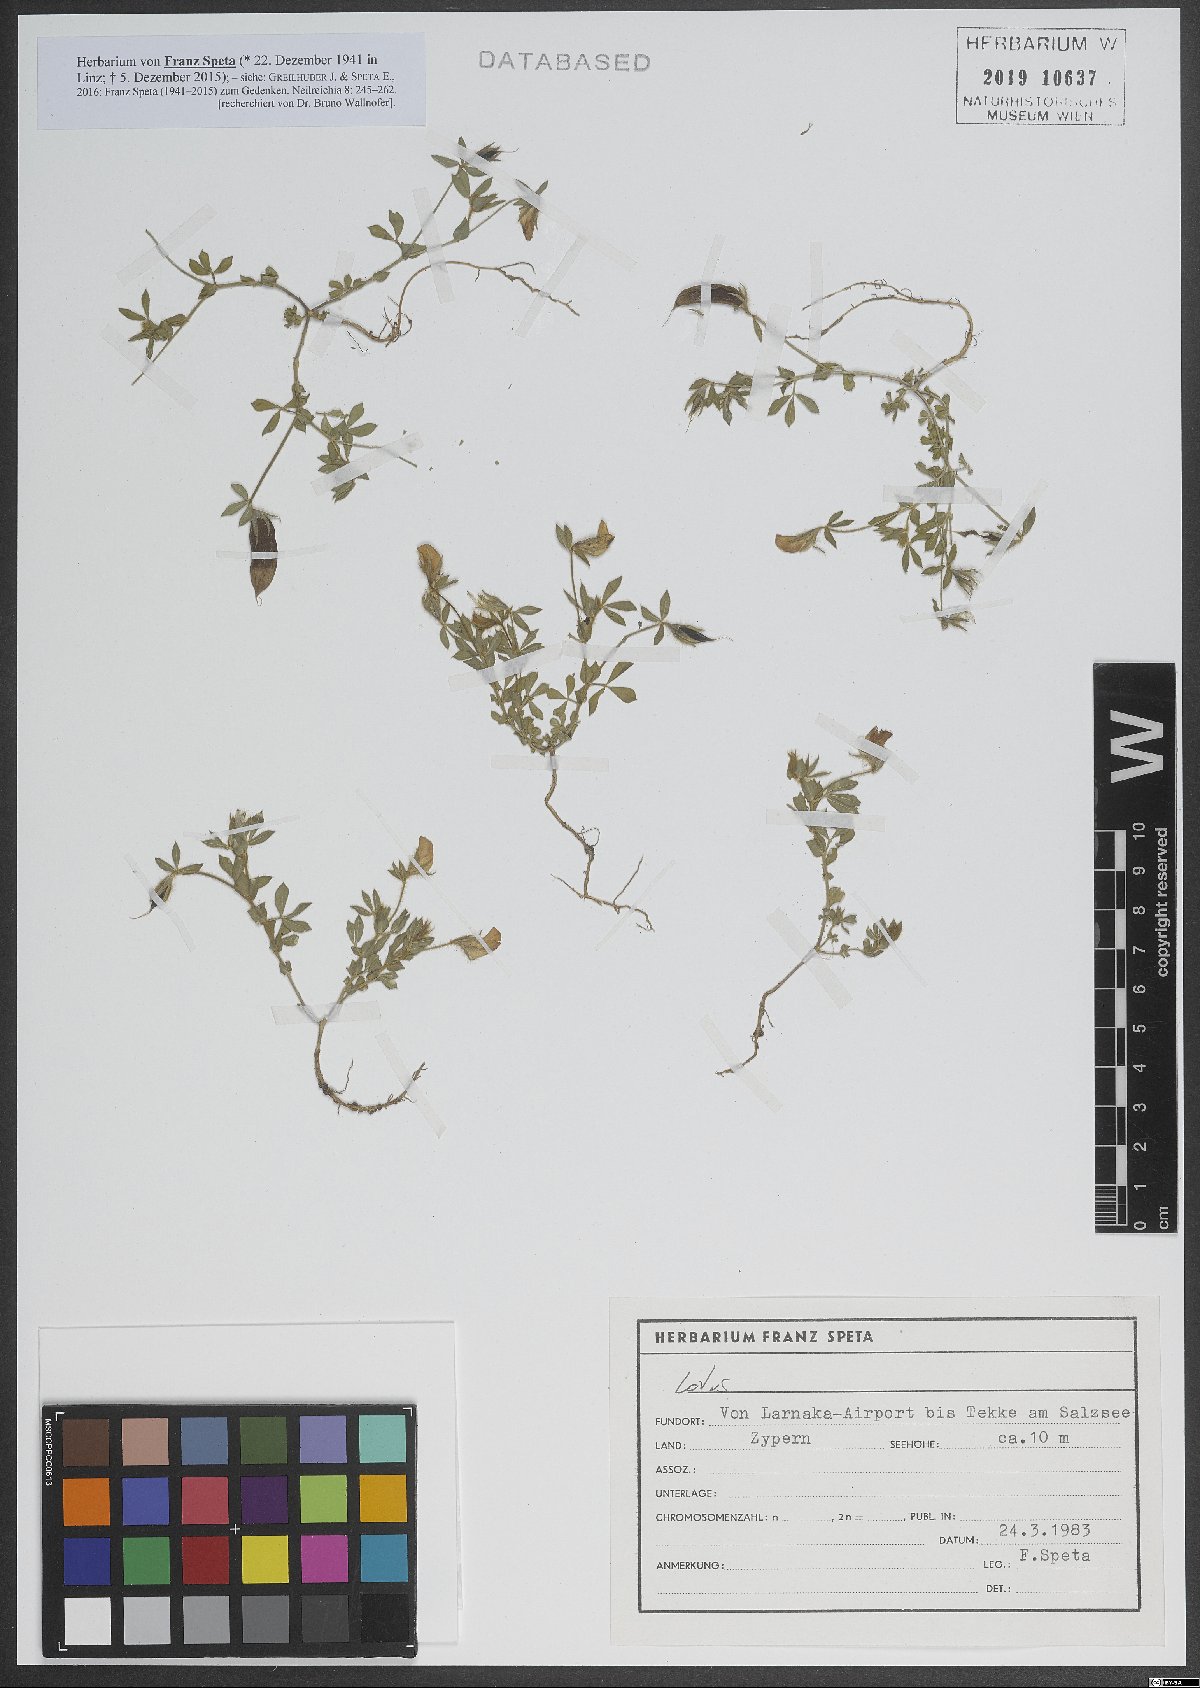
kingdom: Plantae
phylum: Tracheophyta
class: Magnoliopsida
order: Fabales
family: Fabaceae
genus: Lotus
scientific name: Lotus
